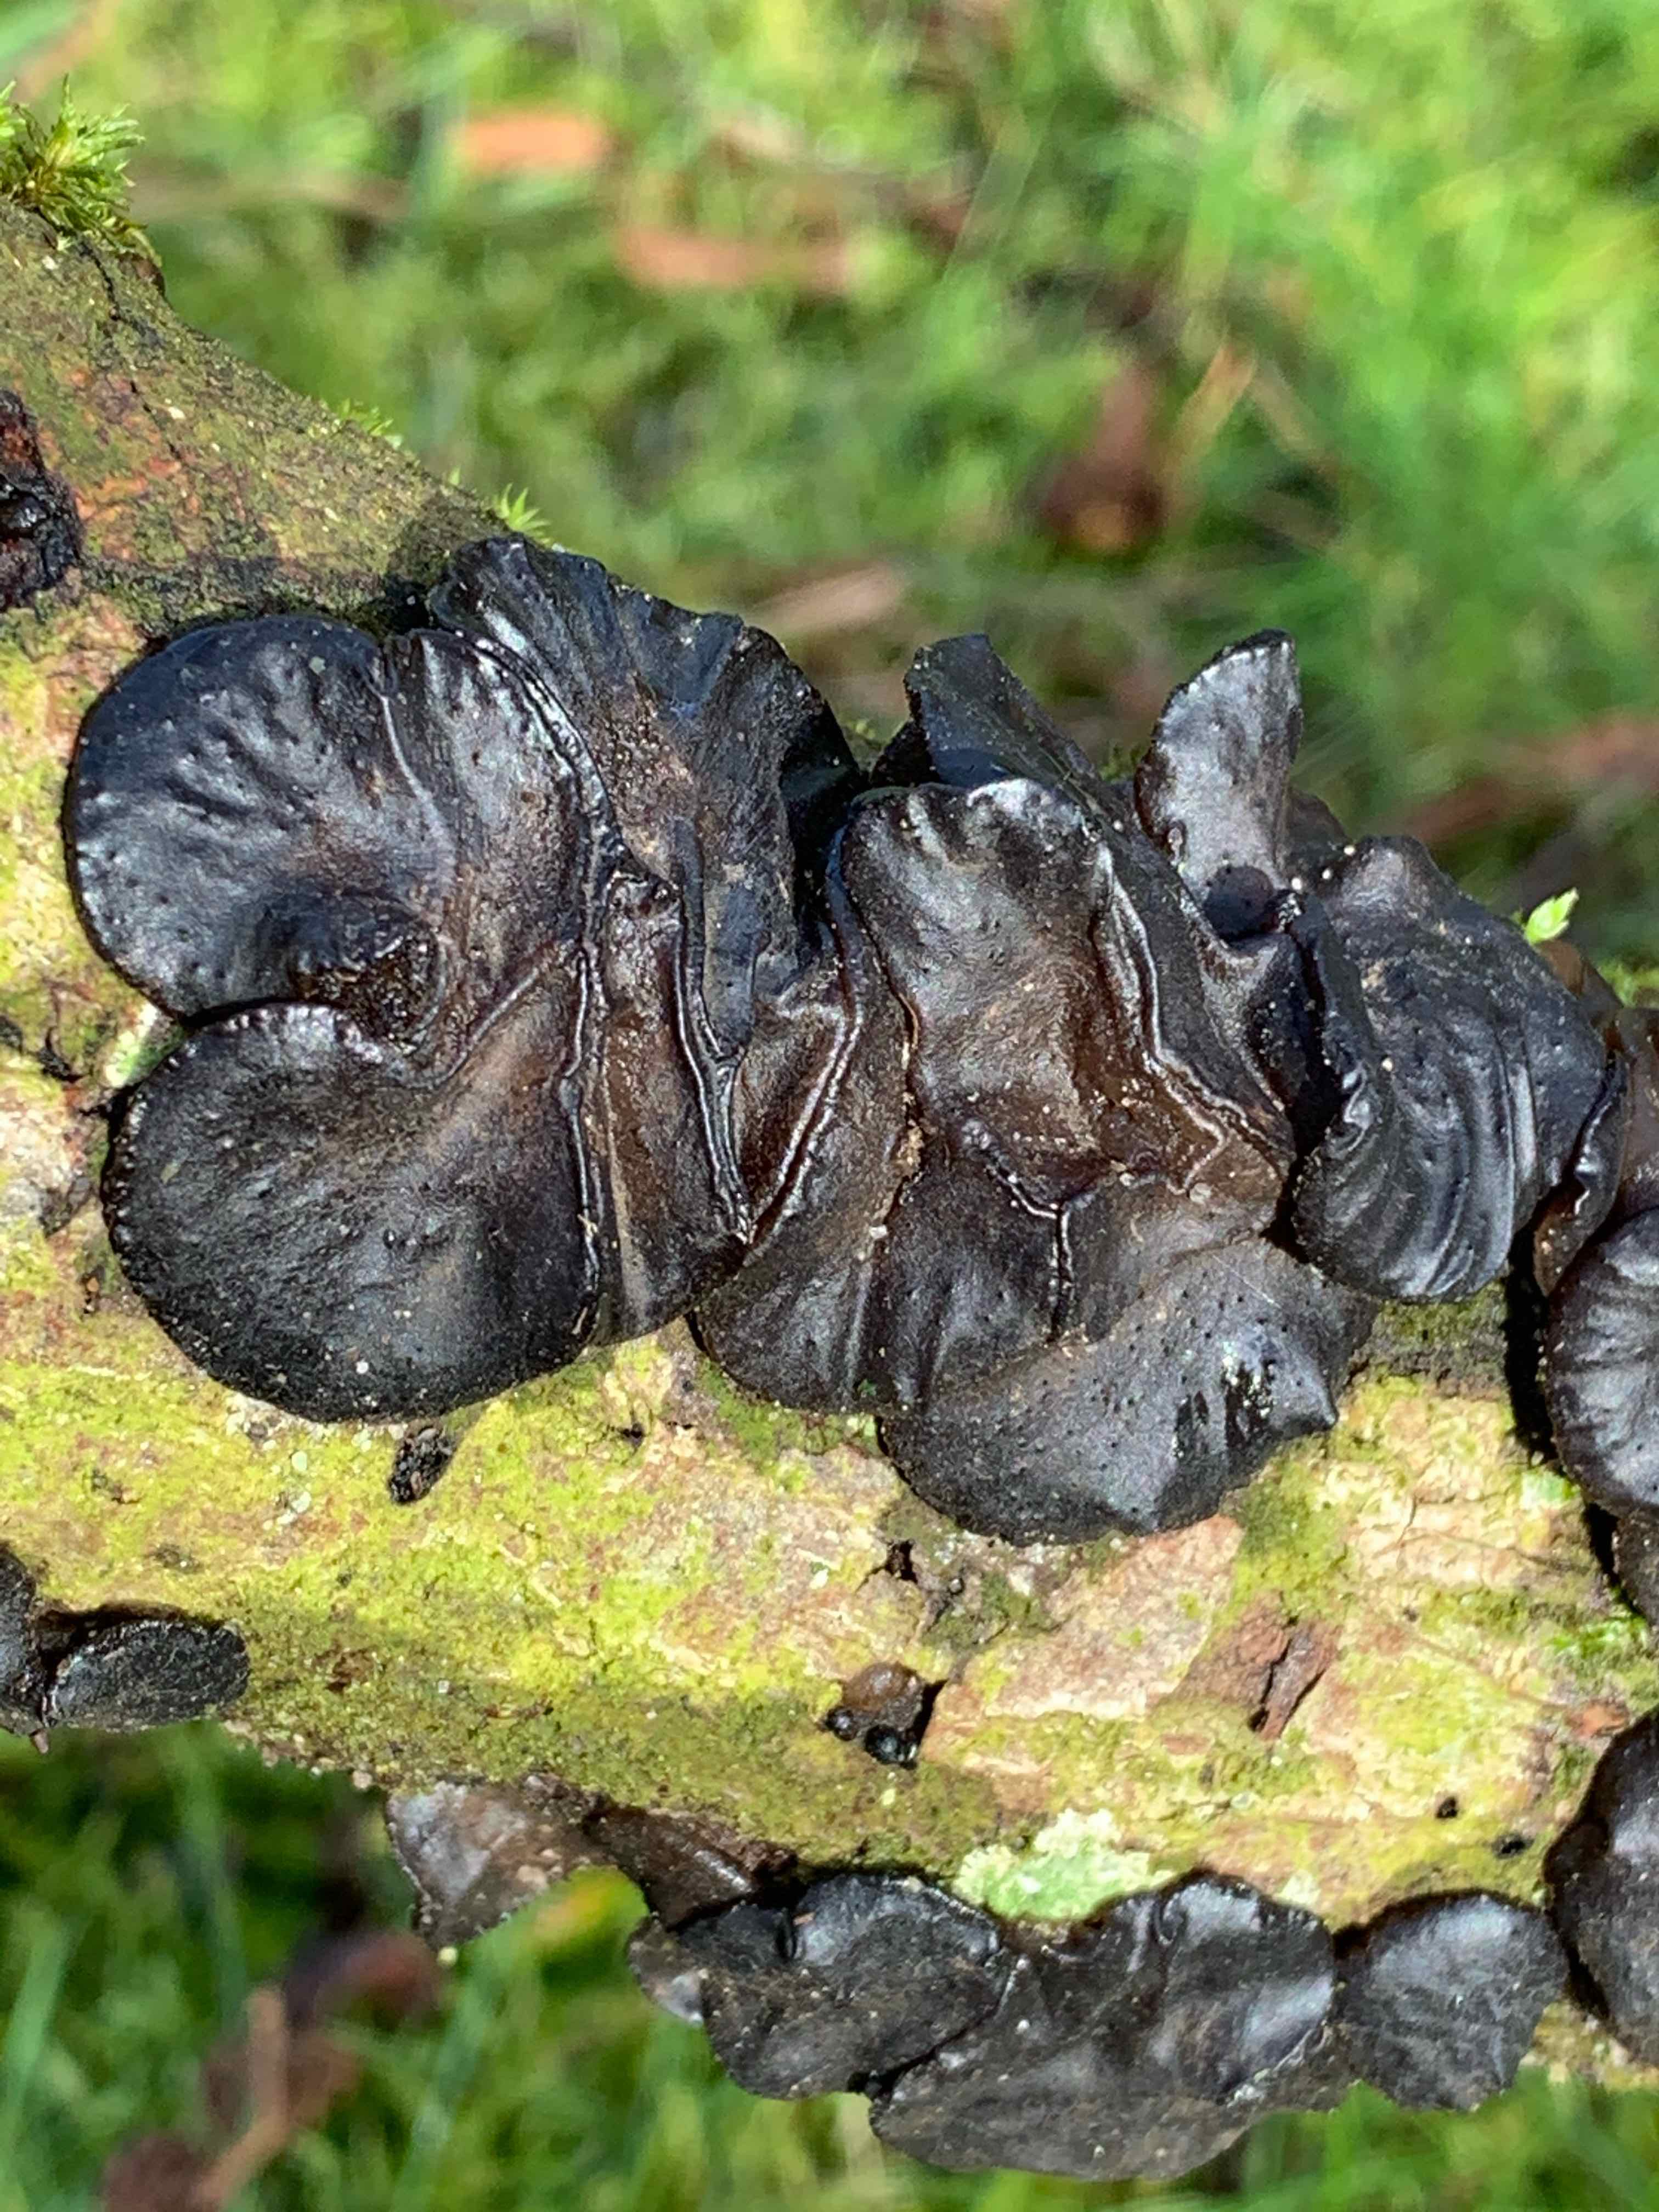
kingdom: Fungi
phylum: Basidiomycota
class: Agaricomycetes
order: Auriculariales
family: Auriculariaceae
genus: Exidia
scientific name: Exidia glandulosa
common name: ege-bævretop
